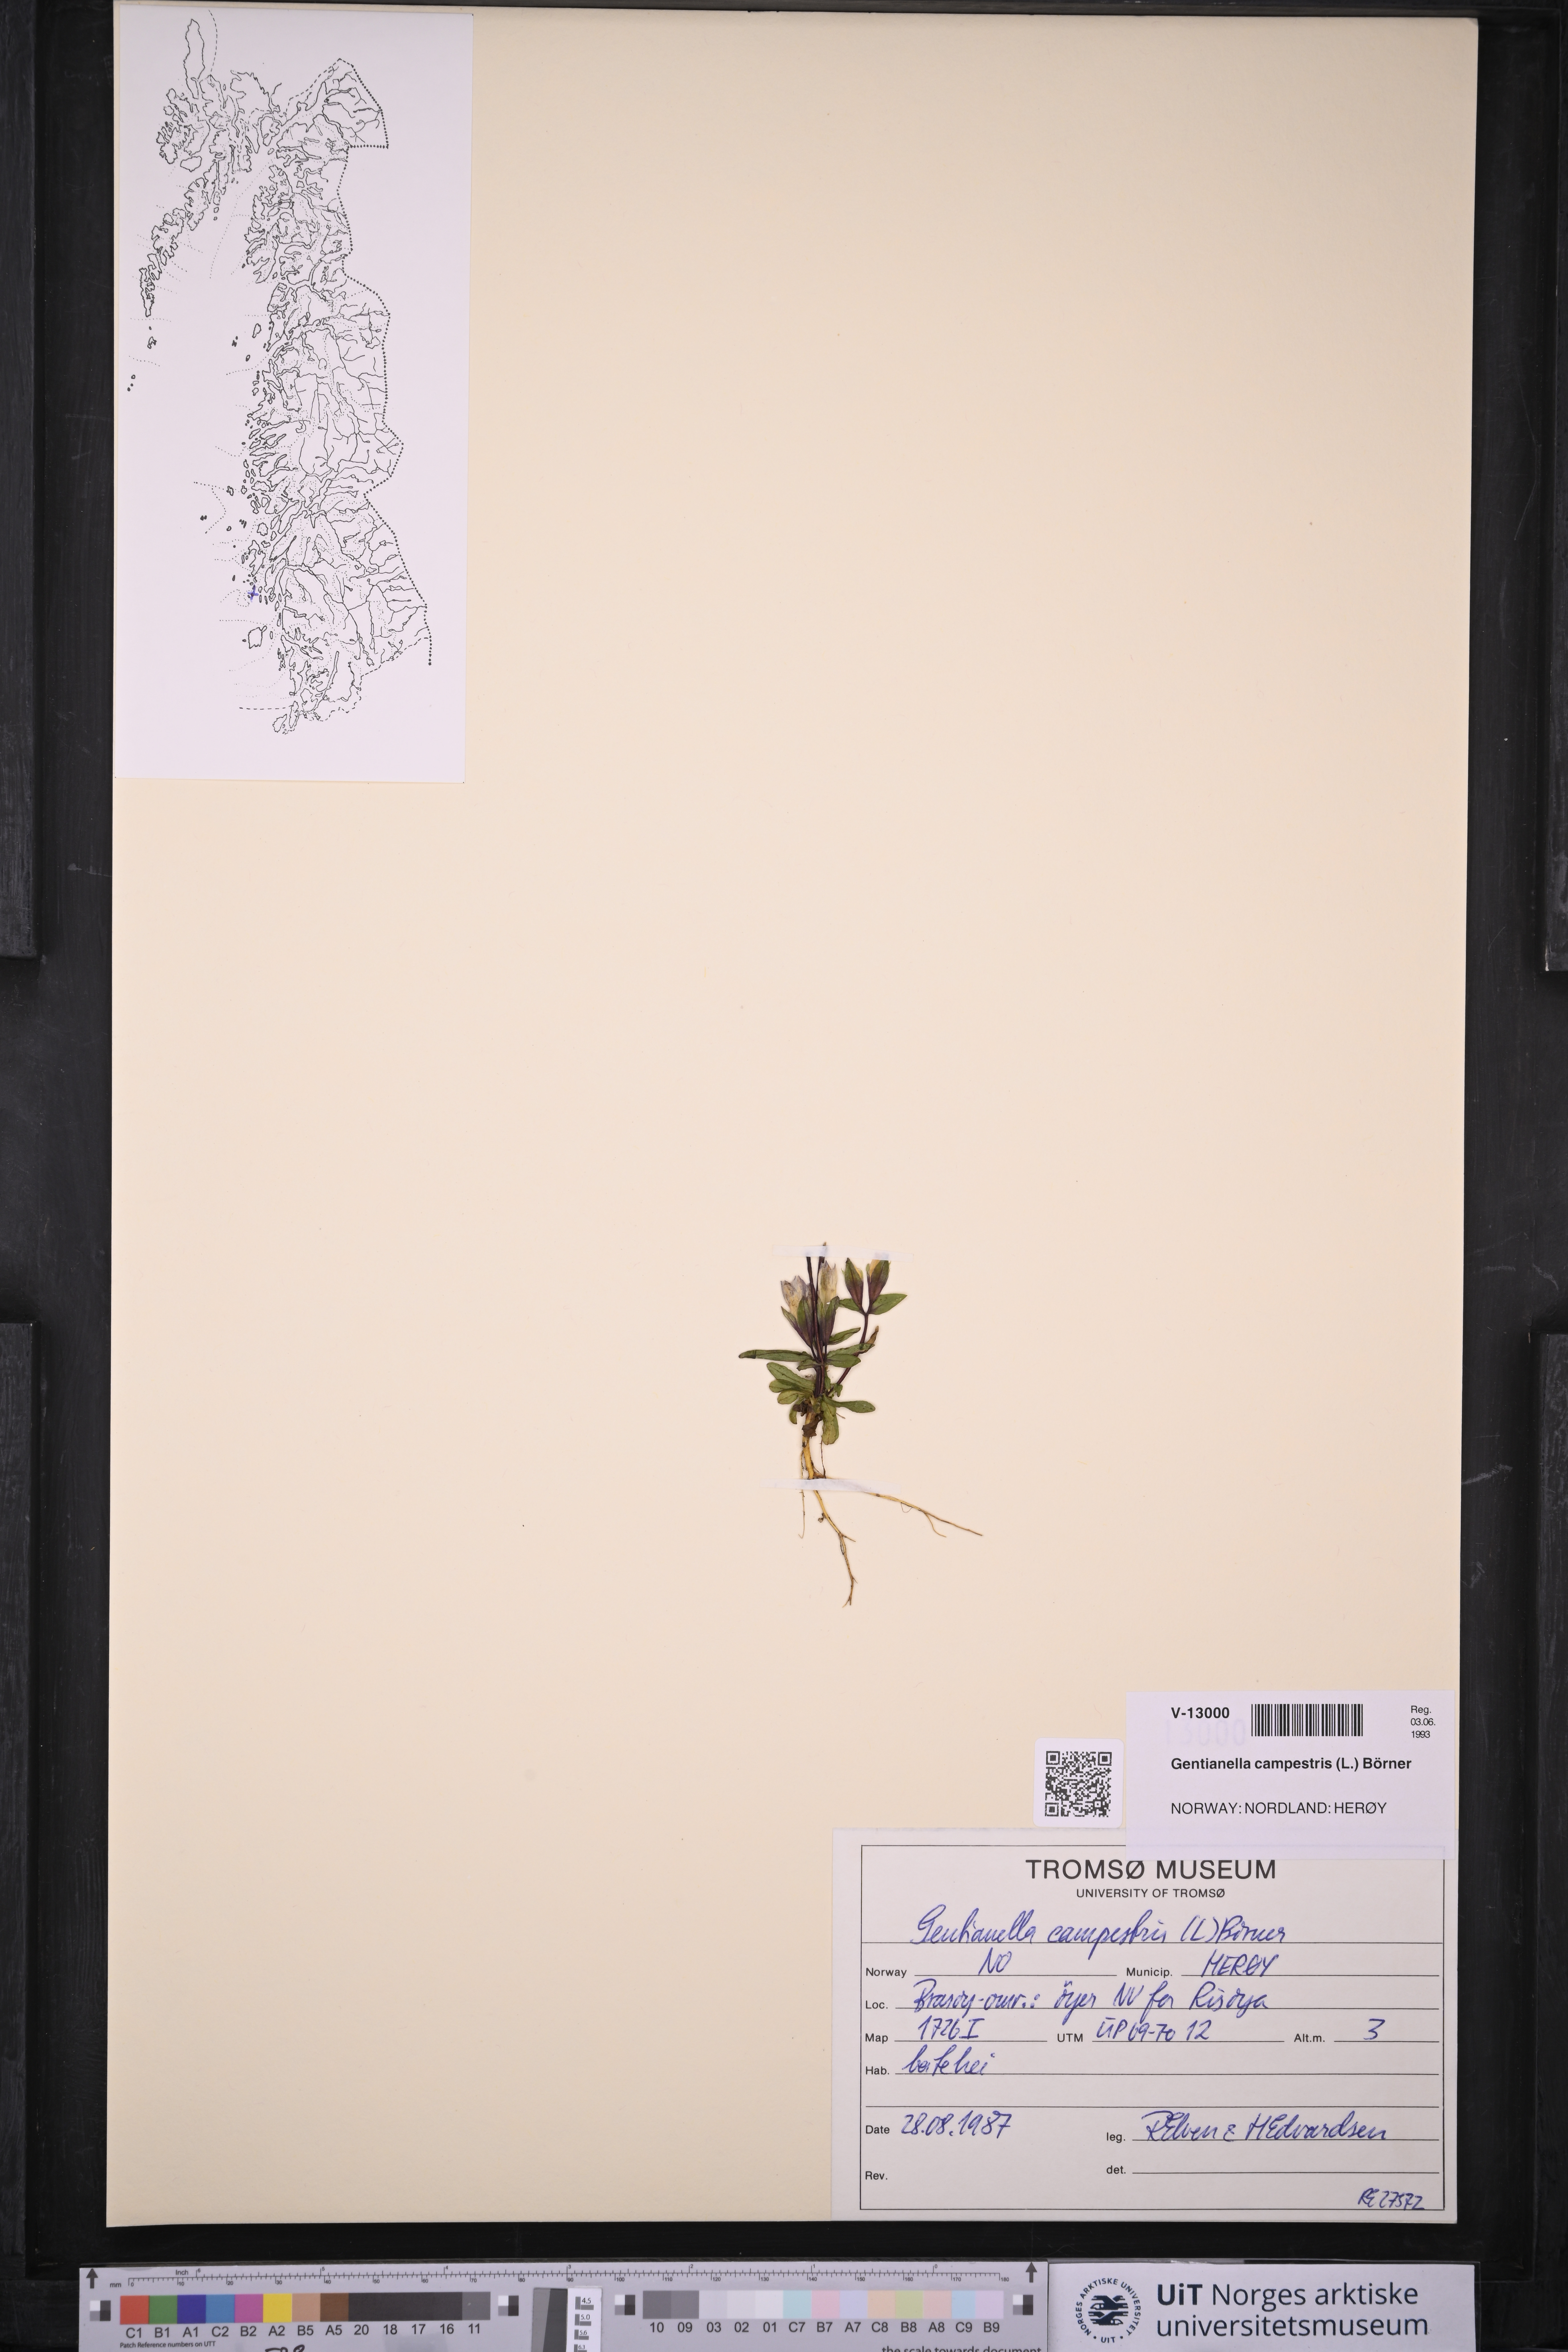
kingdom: Plantae
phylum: Tracheophyta
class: Magnoliopsida
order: Gentianales
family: Gentianaceae
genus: Gentianella
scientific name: Gentianella campestris
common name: Field gentian
